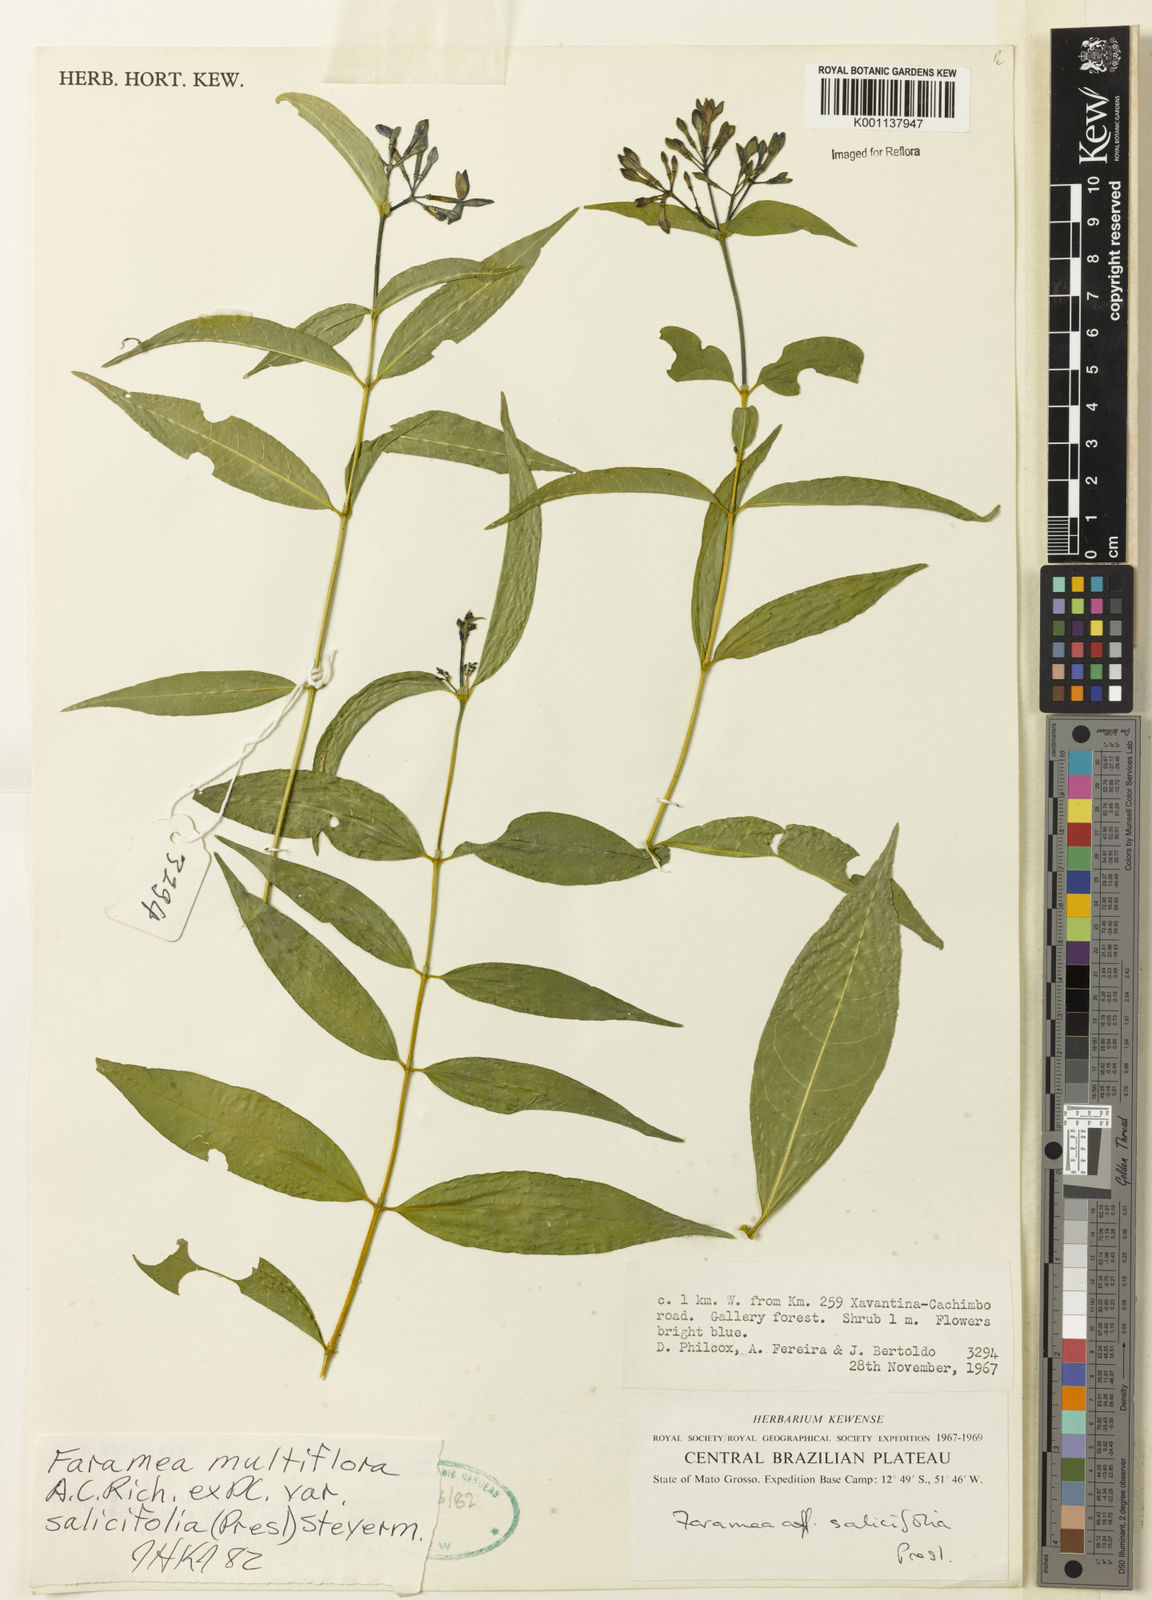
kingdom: Plantae
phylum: Tracheophyta
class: Magnoliopsida
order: Gentianales
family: Rubiaceae
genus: Faramea
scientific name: Faramea multiflora
